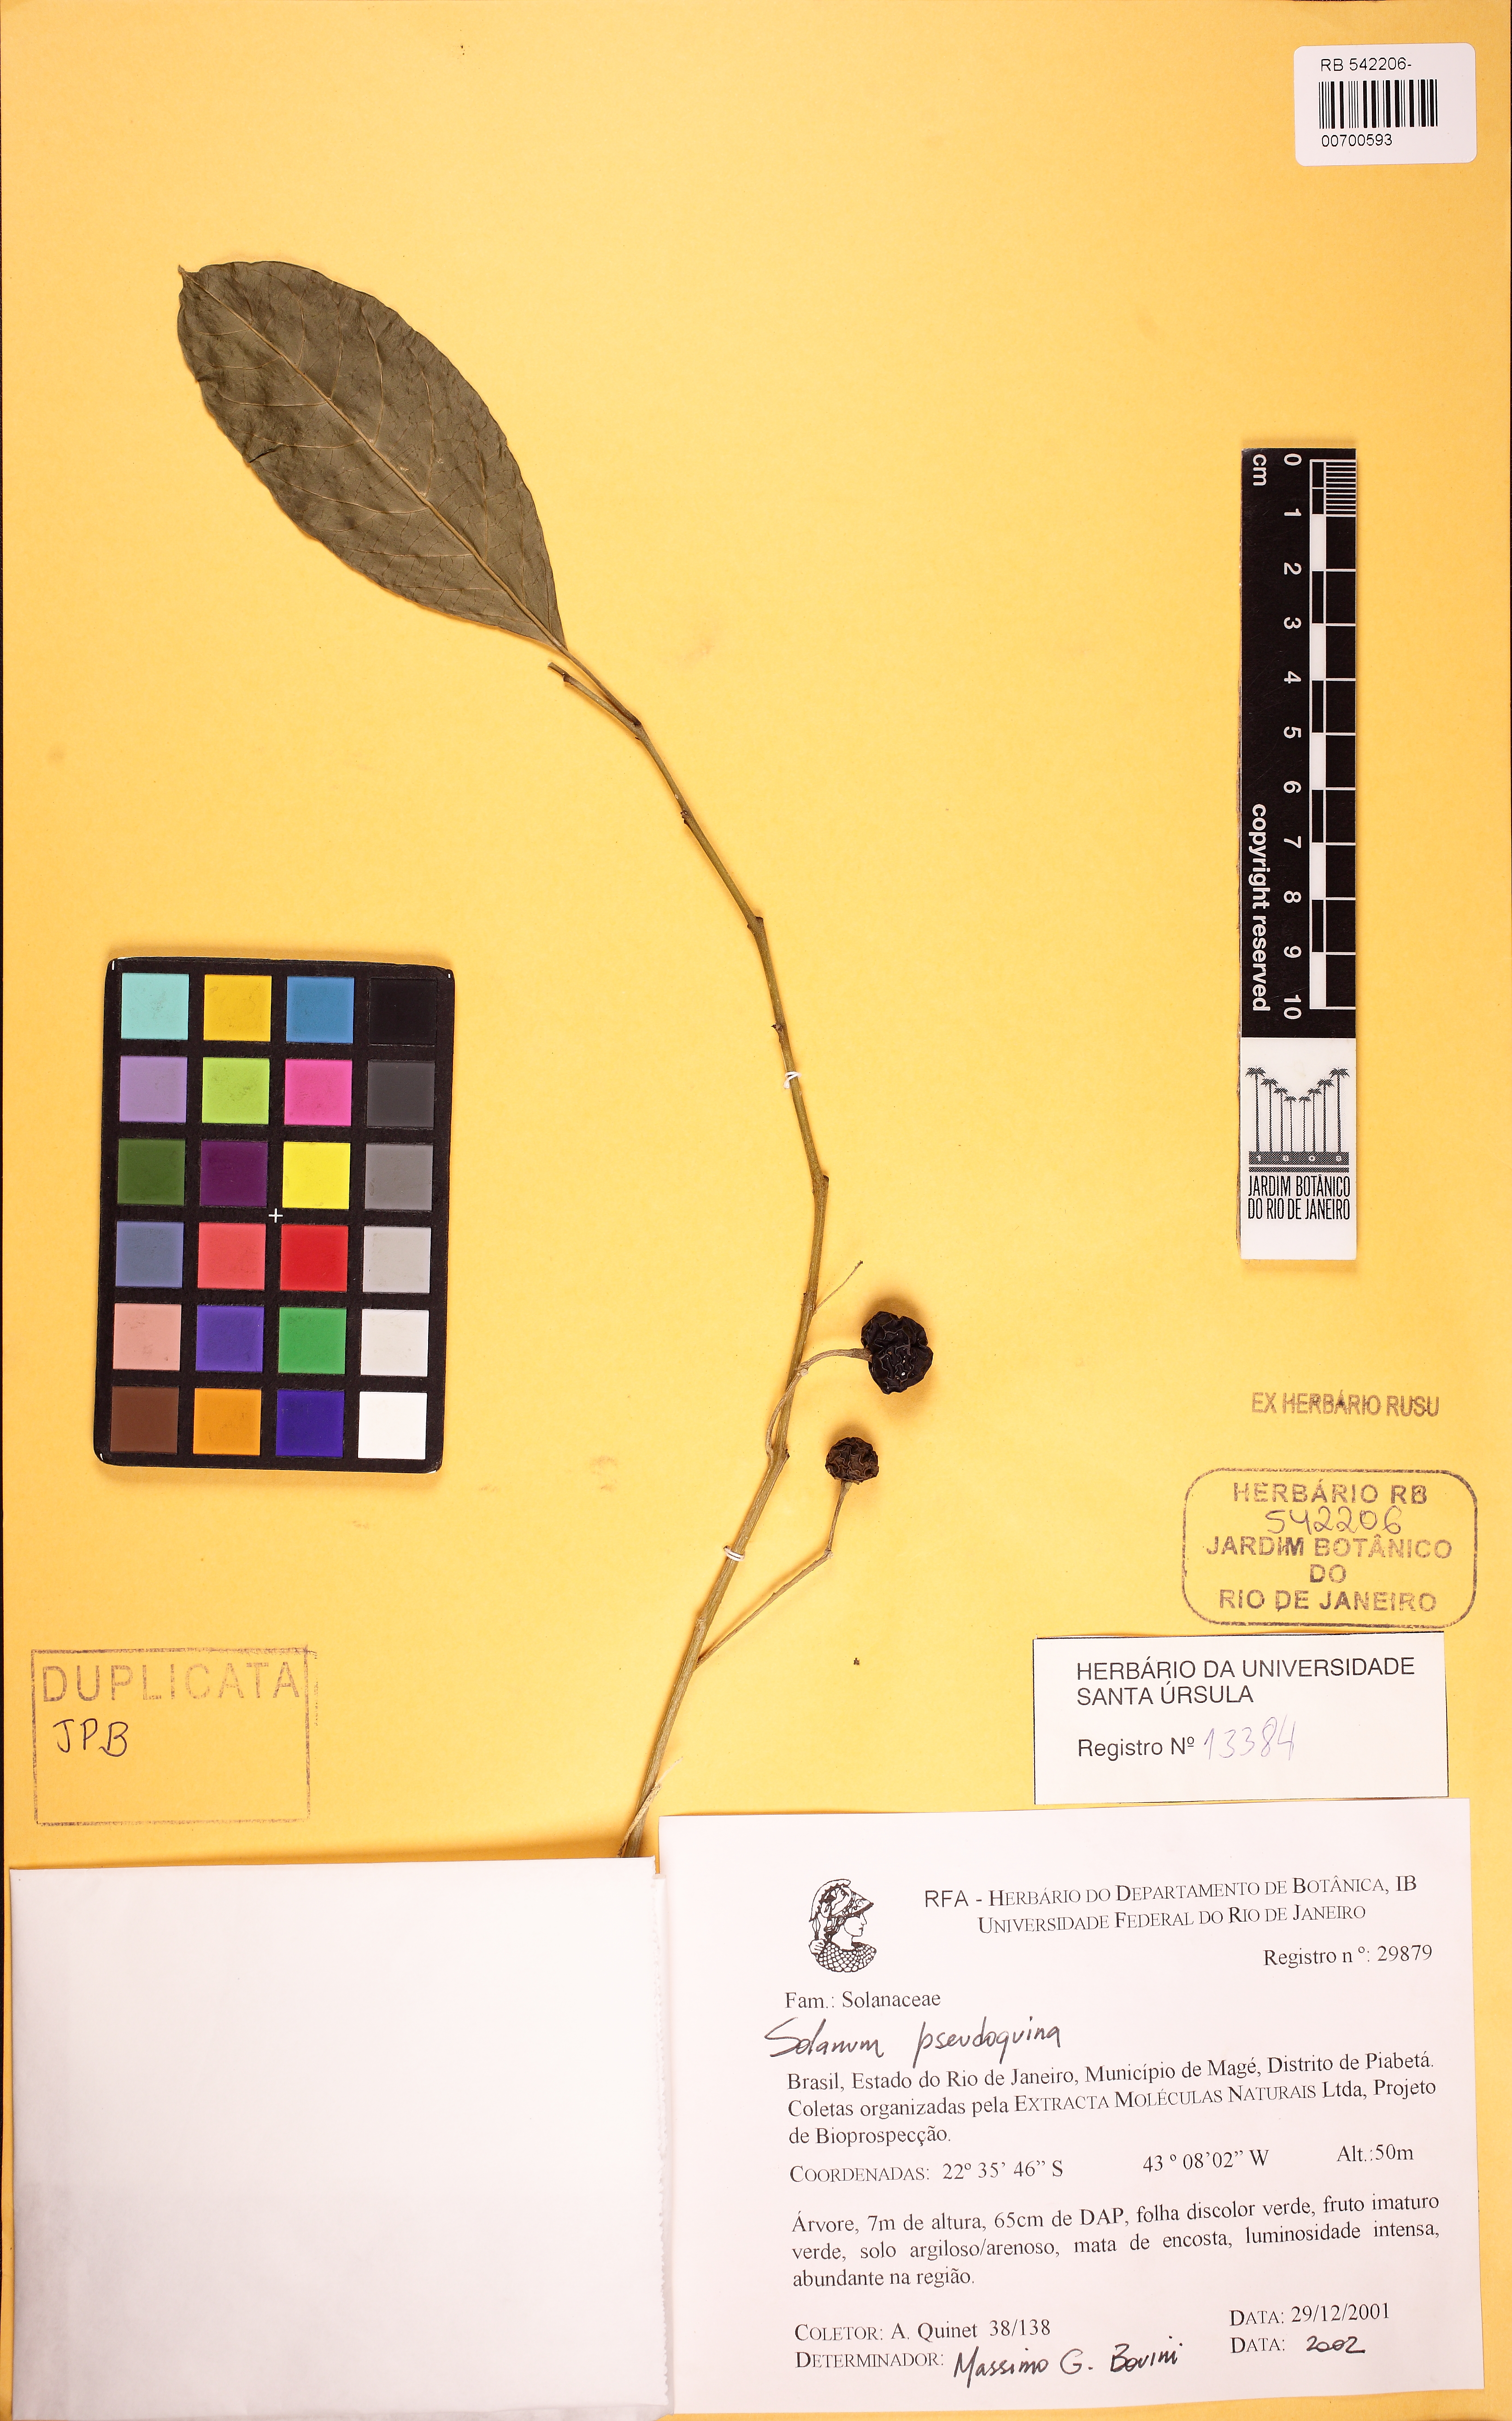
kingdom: Plantae
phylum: Tracheophyta
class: Magnoliopsida
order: Solanales
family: Solanaceae
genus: Solanum
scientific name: Solanum pseudoquina
